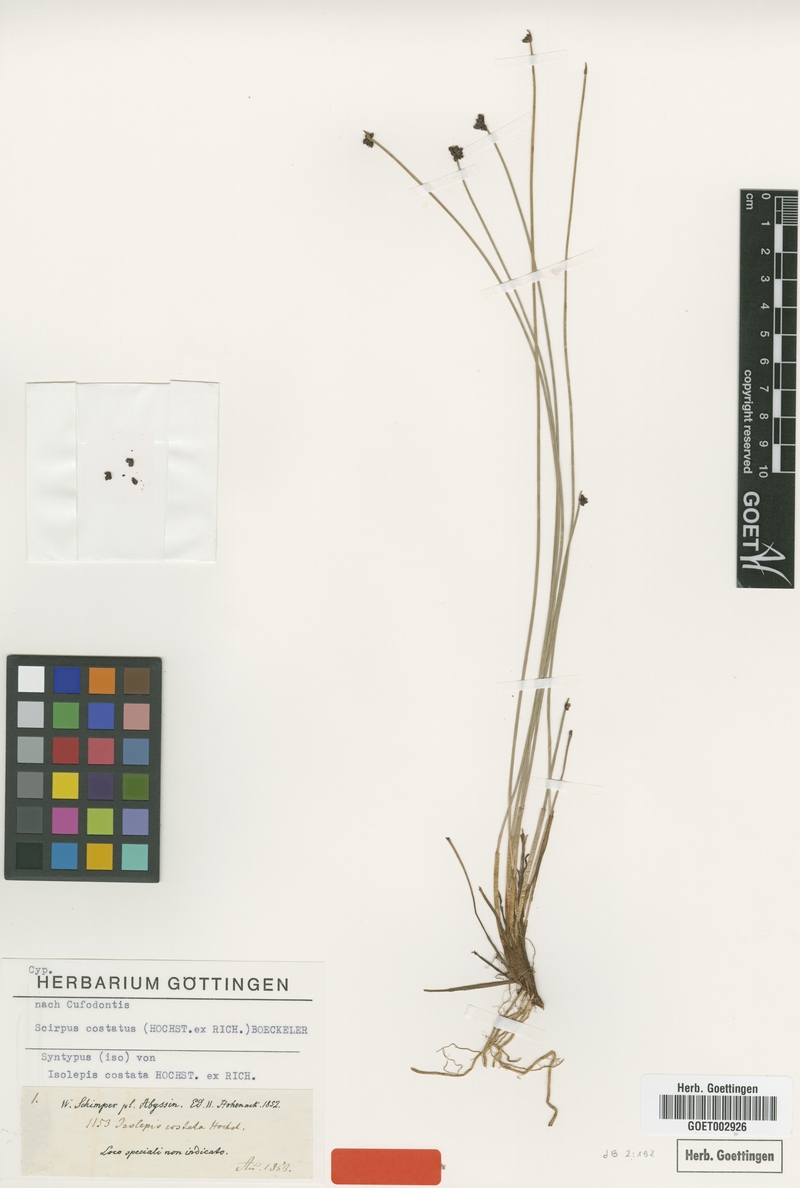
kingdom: Plantae
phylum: Tracheophyta
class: Liliopsida
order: Poales
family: Cyperaceae
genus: Isolepis
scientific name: Isolepis costata
